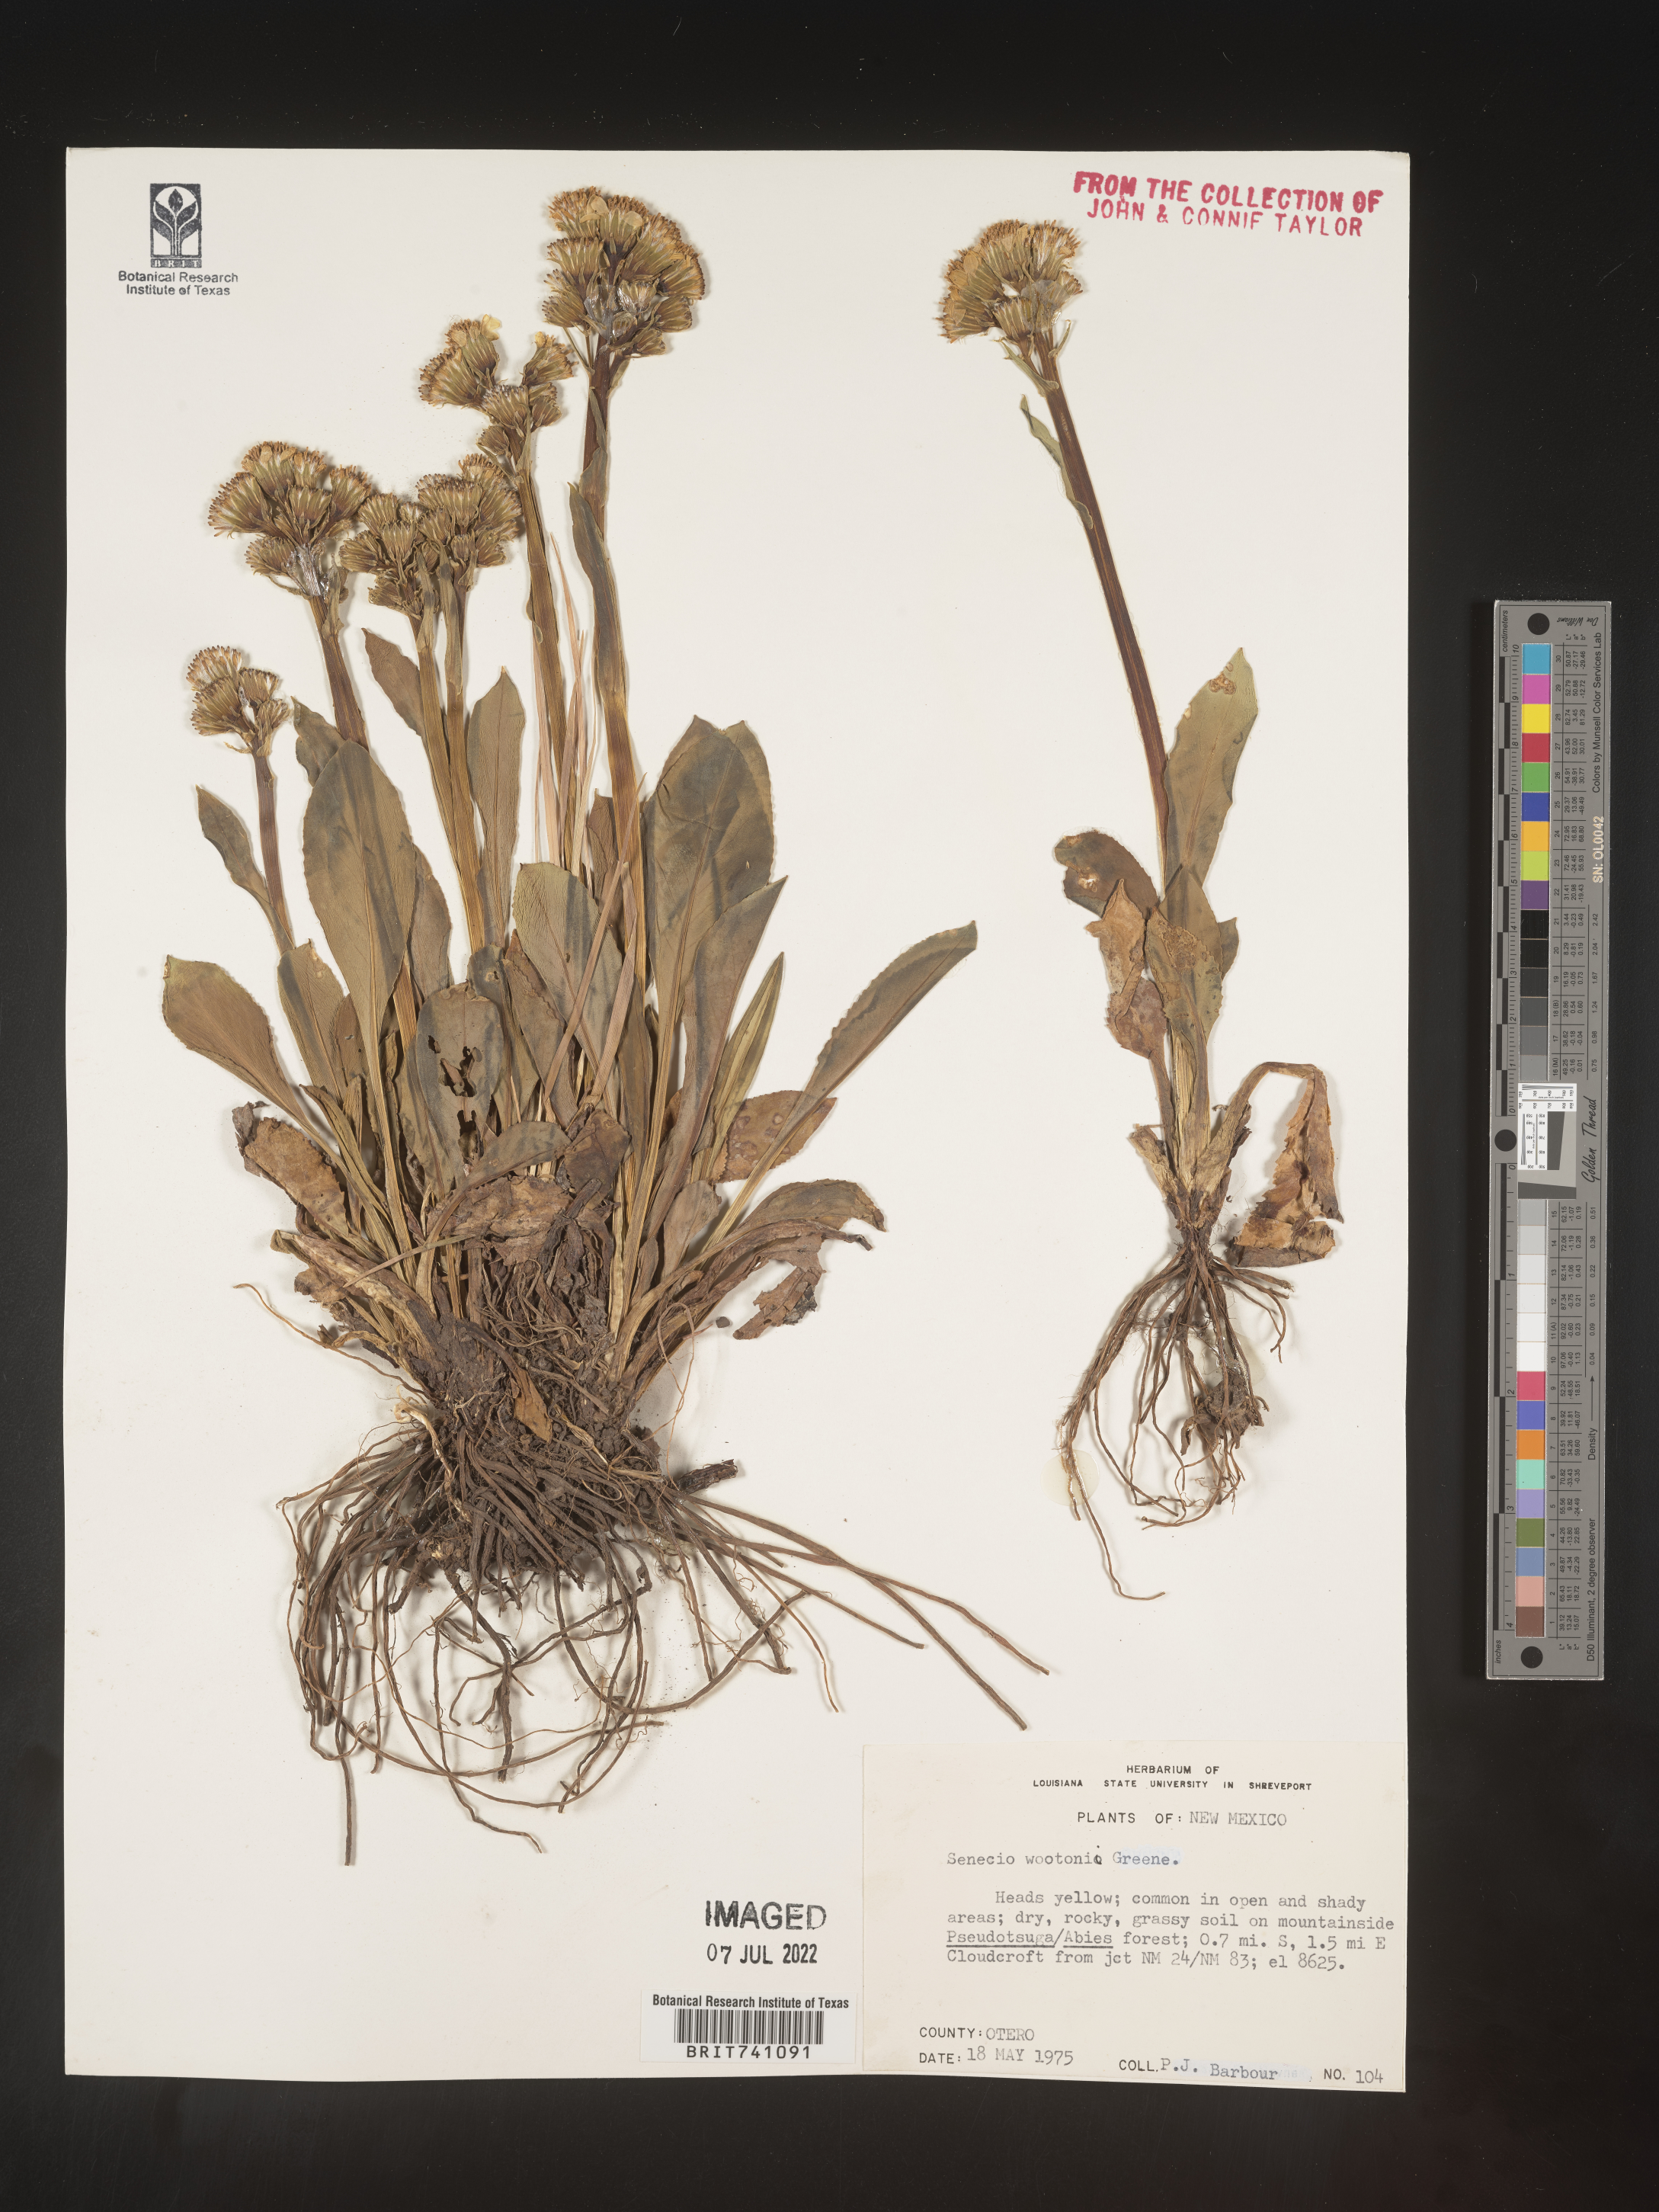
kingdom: Plantae
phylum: Tracheophyta
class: Magnoliopsida
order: Asterales
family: Asteraceae
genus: Senecio
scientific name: Senecio wootonii
